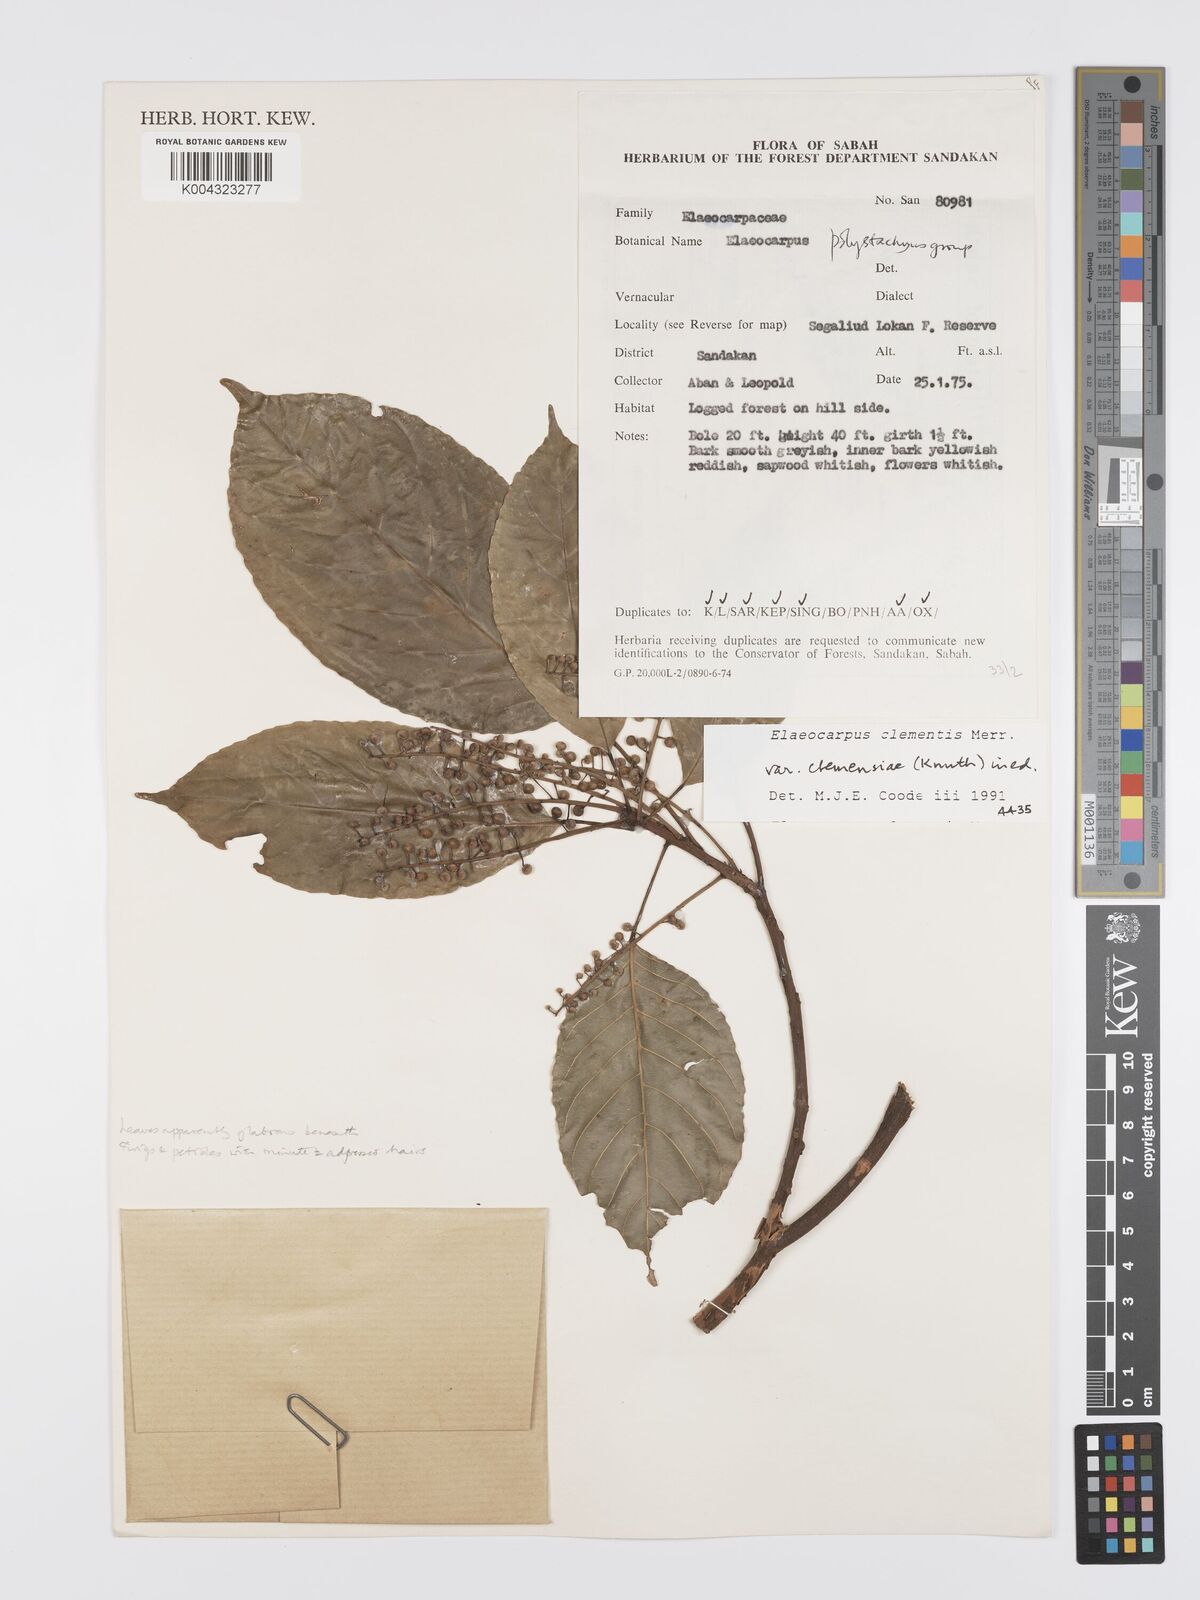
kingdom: Plantae
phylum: Tracheophyta
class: Magnoliopsida
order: Oxalidales
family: Elaeocarpaceae
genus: Elaeocarpus
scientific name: Elaeocarpus clementis
